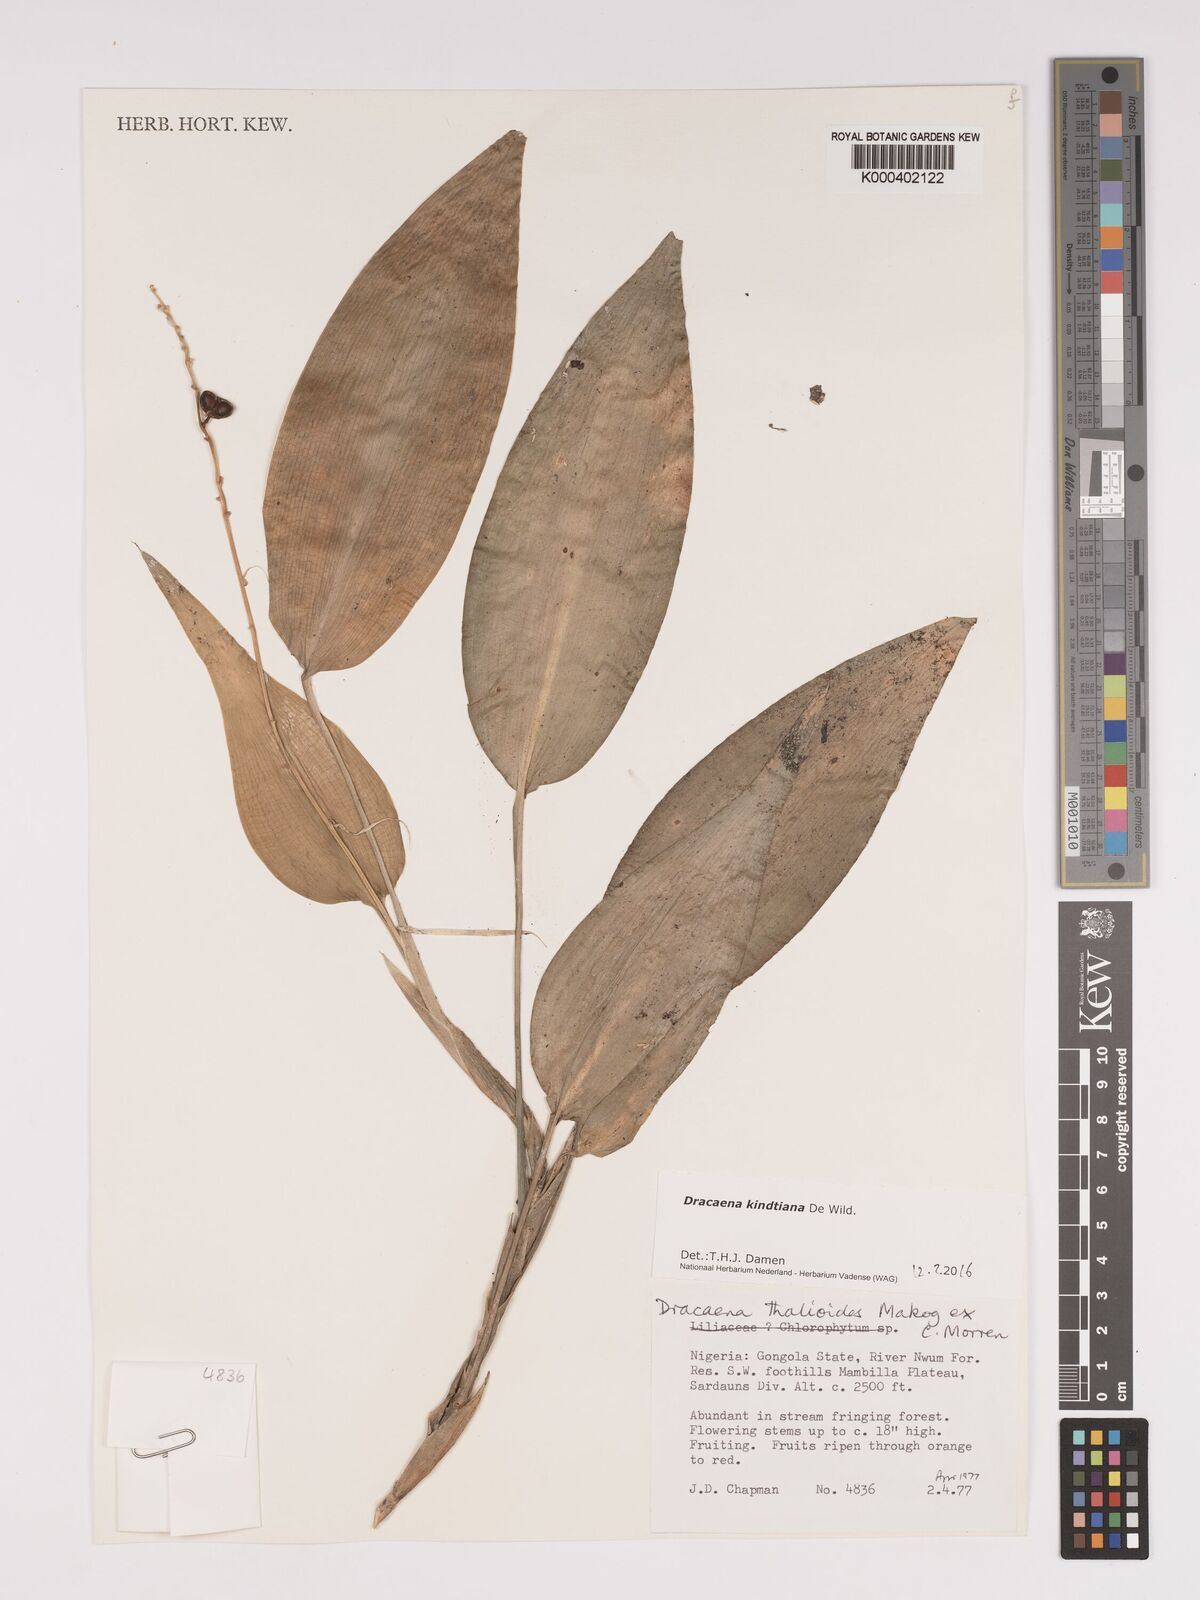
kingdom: Plantae
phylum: Tracheophyta
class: Liliopsida
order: Asparagales
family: Asparagaceae
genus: Dracaena
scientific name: Dracaena kindtiana
